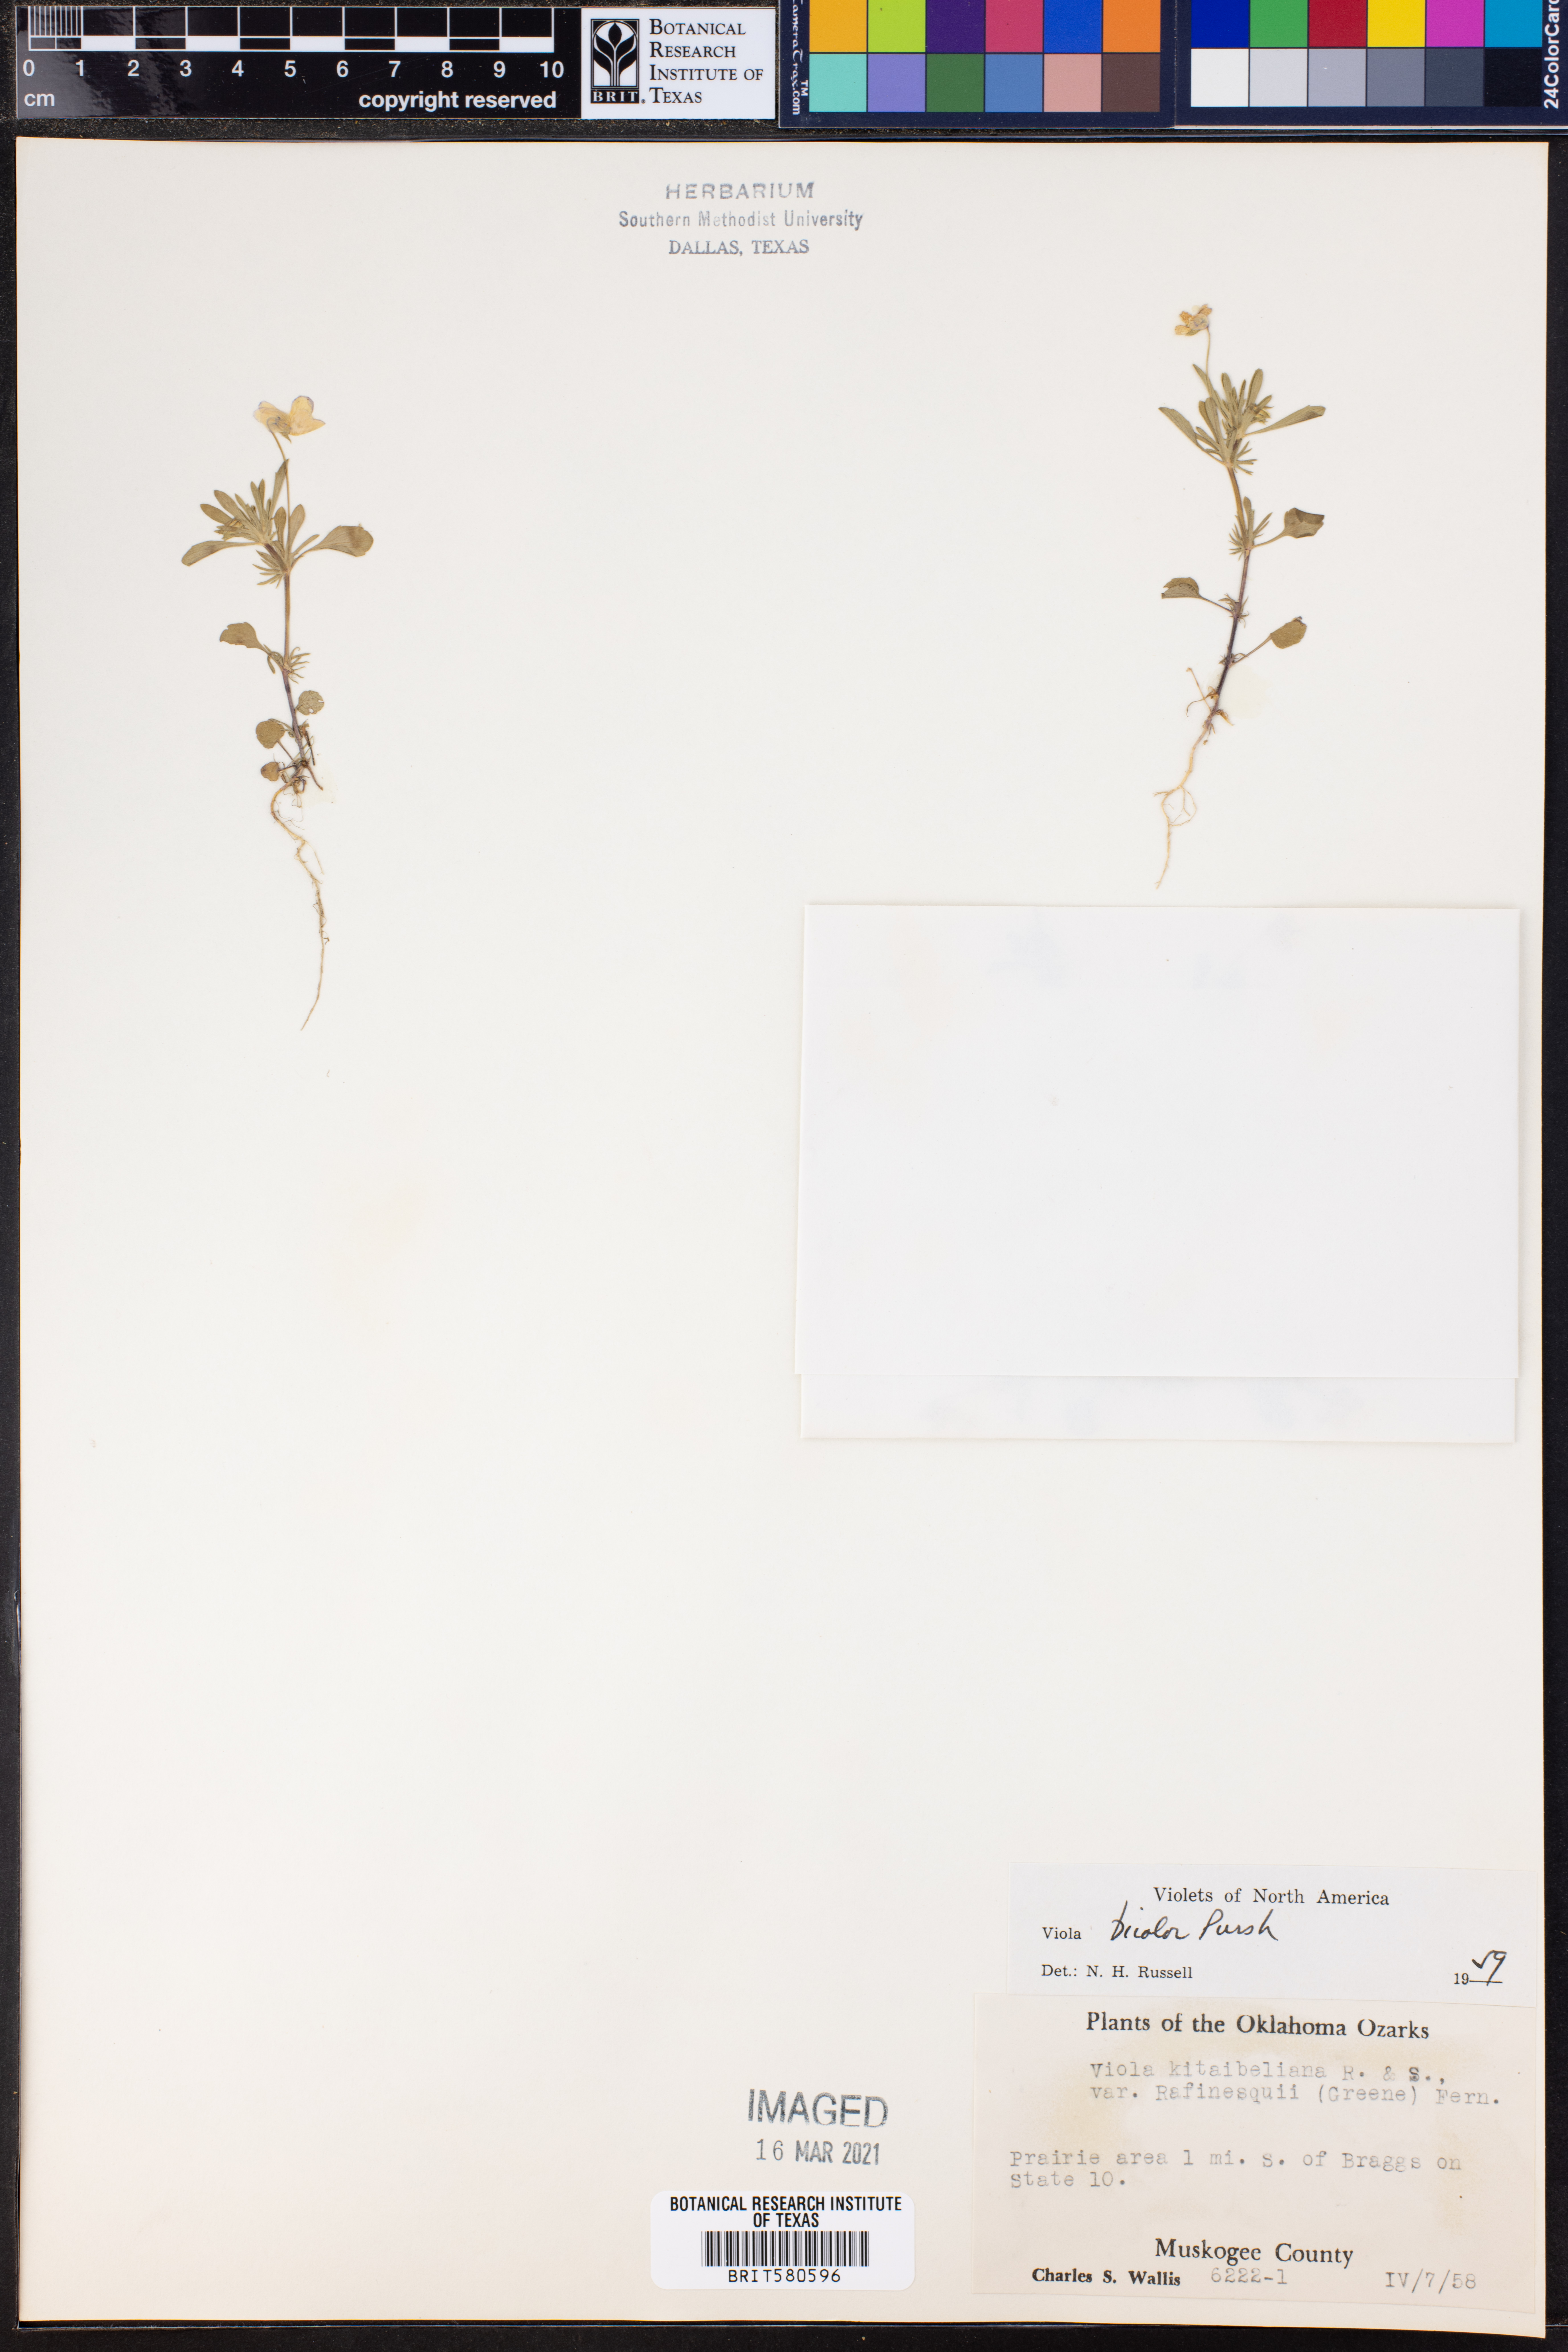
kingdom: Plantae
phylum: Tracheophyta
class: Magnoliopsida
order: Malpighiales
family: Violaceae
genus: Viola
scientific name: Viola rafinesquei
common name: American field pansy
